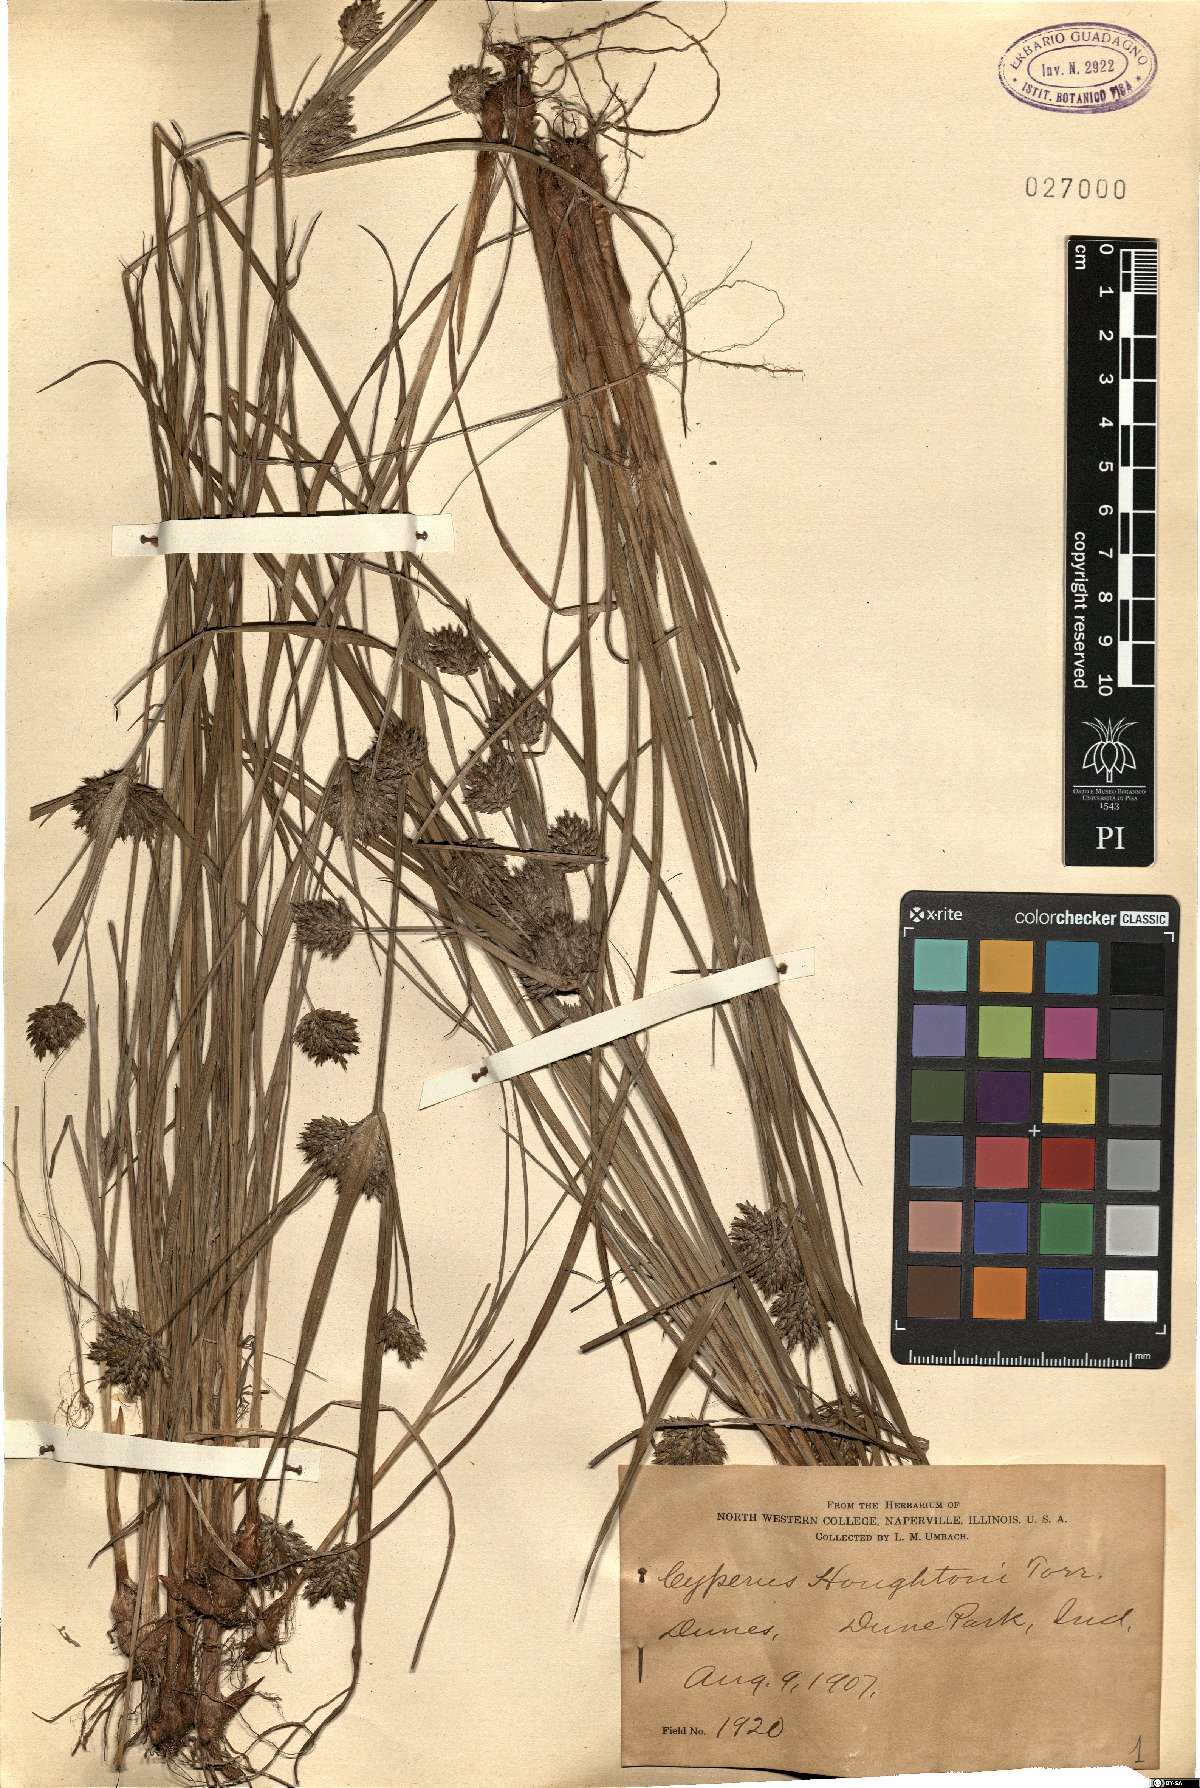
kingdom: Plantae
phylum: Tracheophyta
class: Liliopsida
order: Poales
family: Cyperaceae
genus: Cyperus
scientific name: Cyperus houghtonii
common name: Houghton's cyperus
